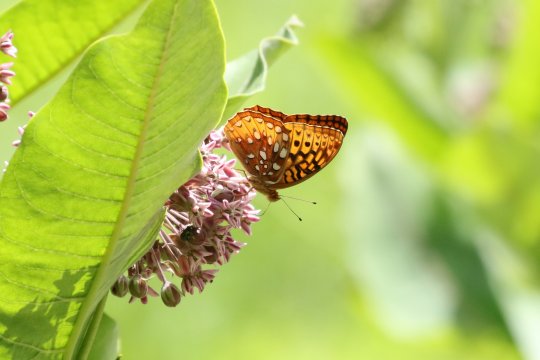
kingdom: Animalia
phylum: Arthropoda
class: Insecta
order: Lepidoptera
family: Nymphalidae
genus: Speyeria
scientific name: Speyeria cybele
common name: Great Spangled Fritillary
